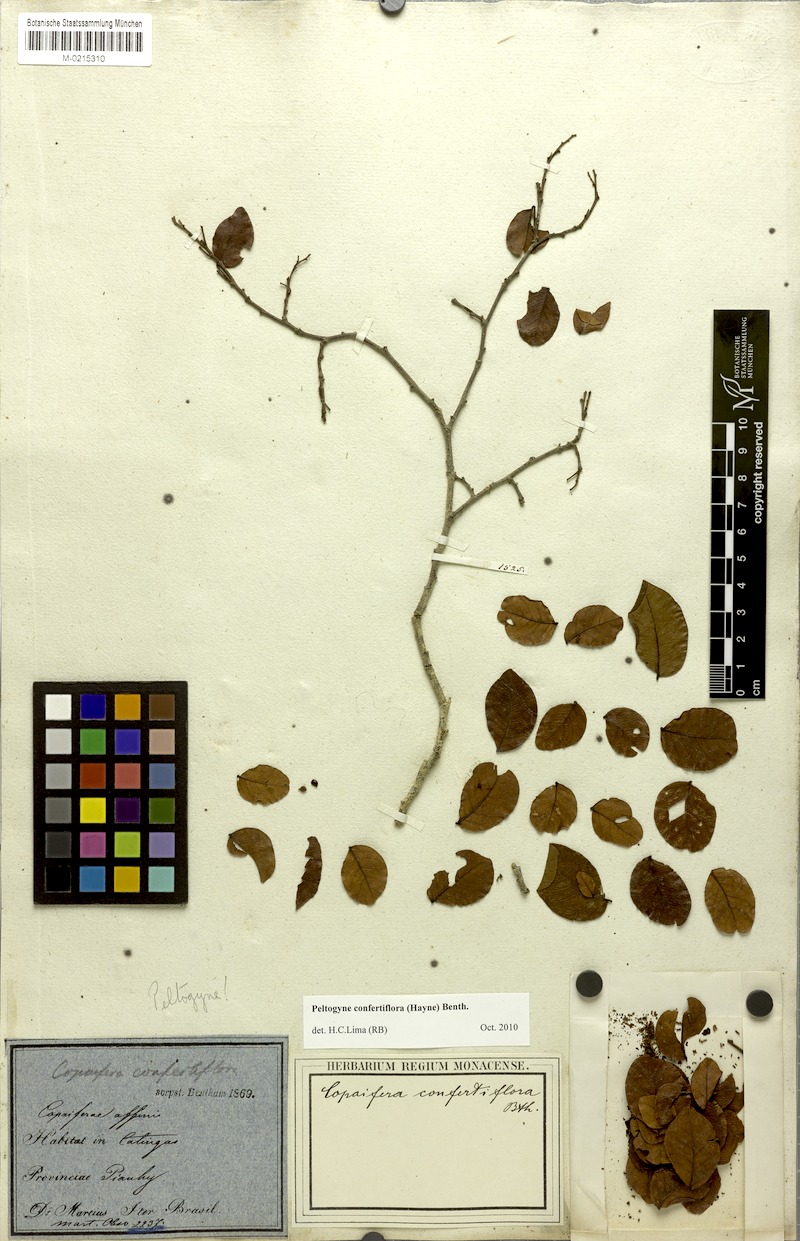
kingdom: Plantae
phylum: Tracheophyta
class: Magnoliopsida
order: Fabales
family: Fabaceae
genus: Peltogyne
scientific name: Peltogyne confertiflora
